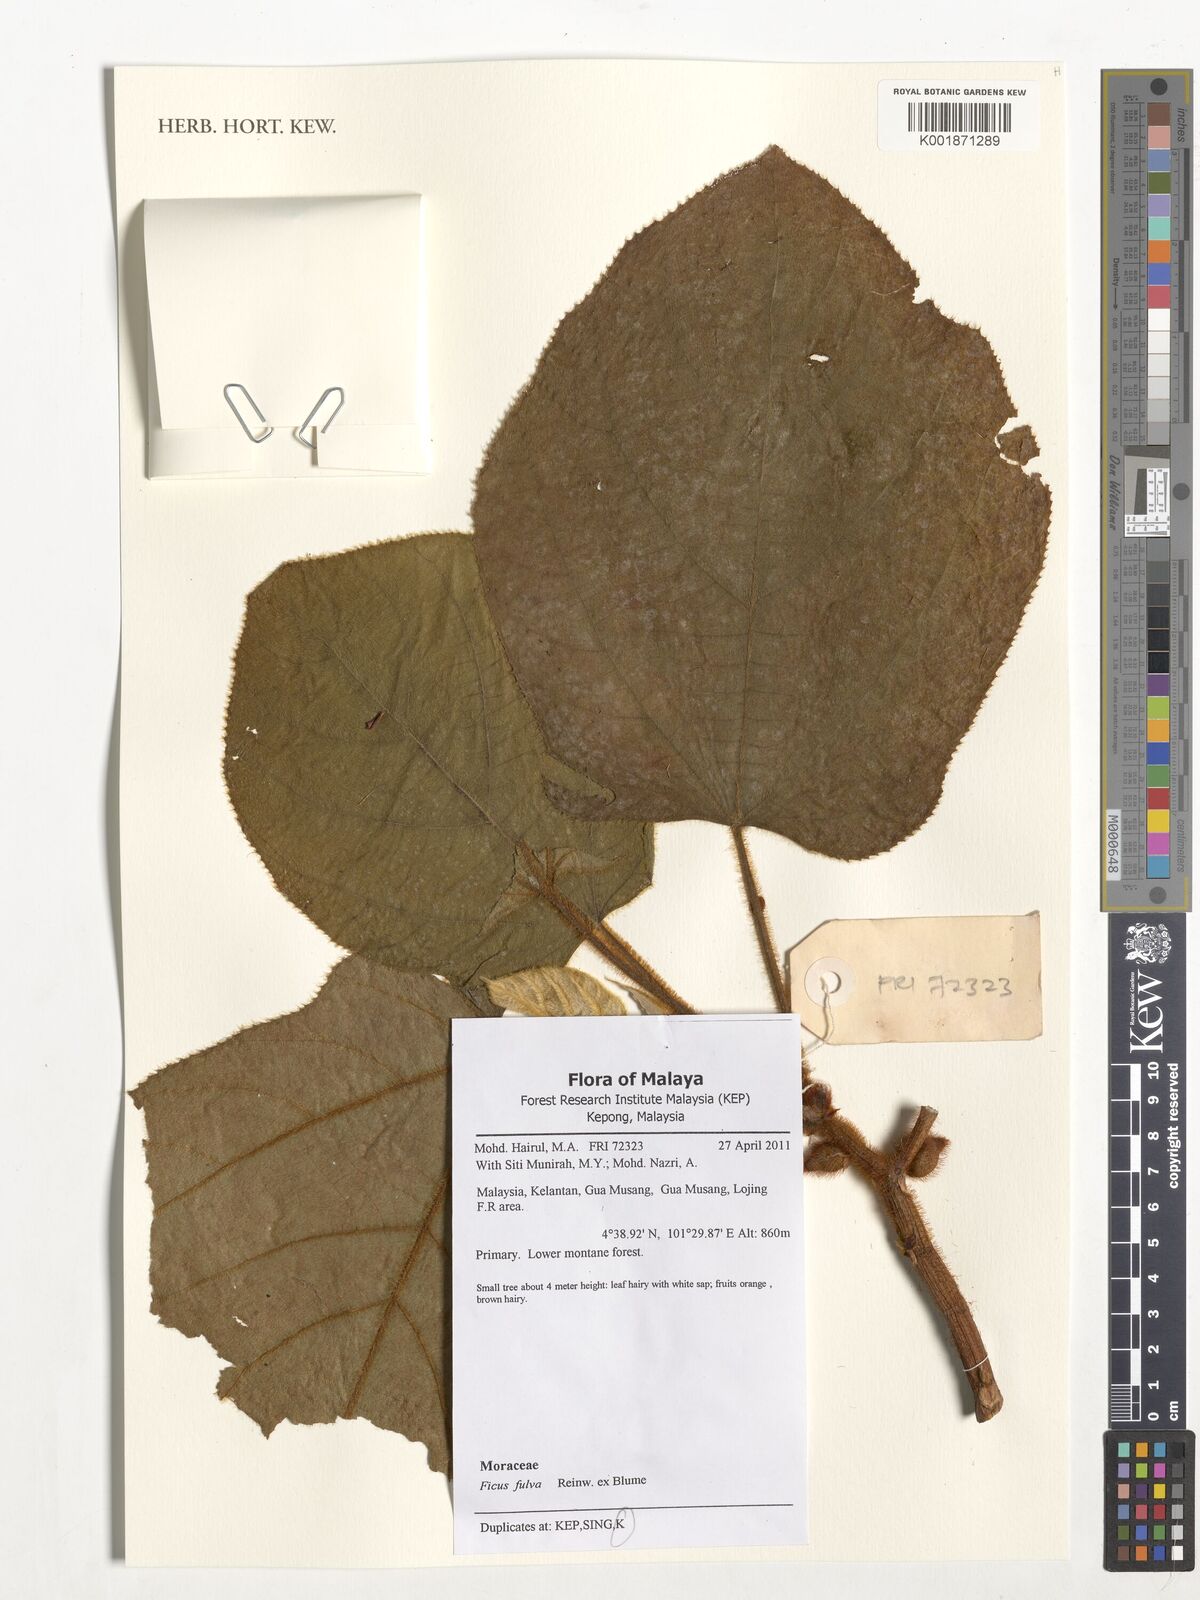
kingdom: Plantae
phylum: Tracheophyta
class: Magnoliopsida
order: Rosales
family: Moraceae
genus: Ficus
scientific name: Ficus fulva
